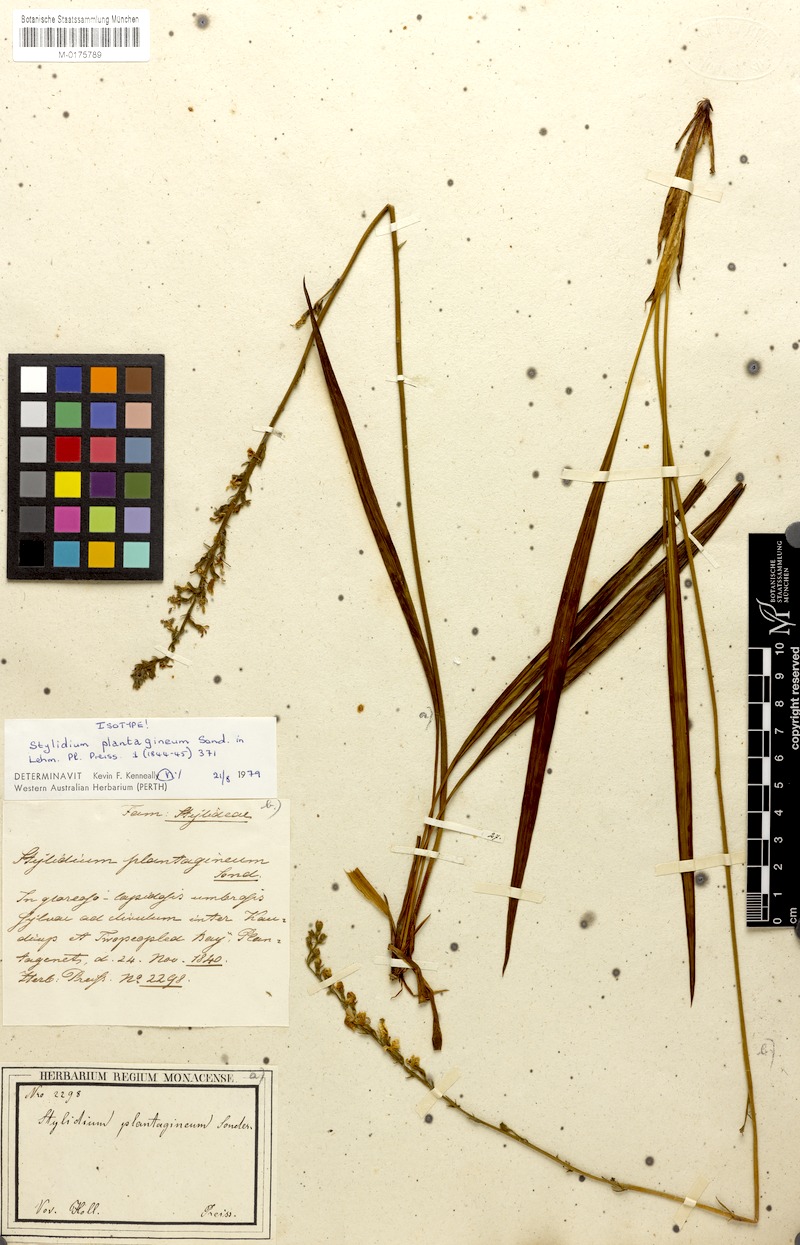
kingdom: Plantae
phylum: Tracheophyta
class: Magnoliopsida
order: Asterales
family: Stylidiaceae
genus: Stylidium
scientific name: Stylidium plantagineum
